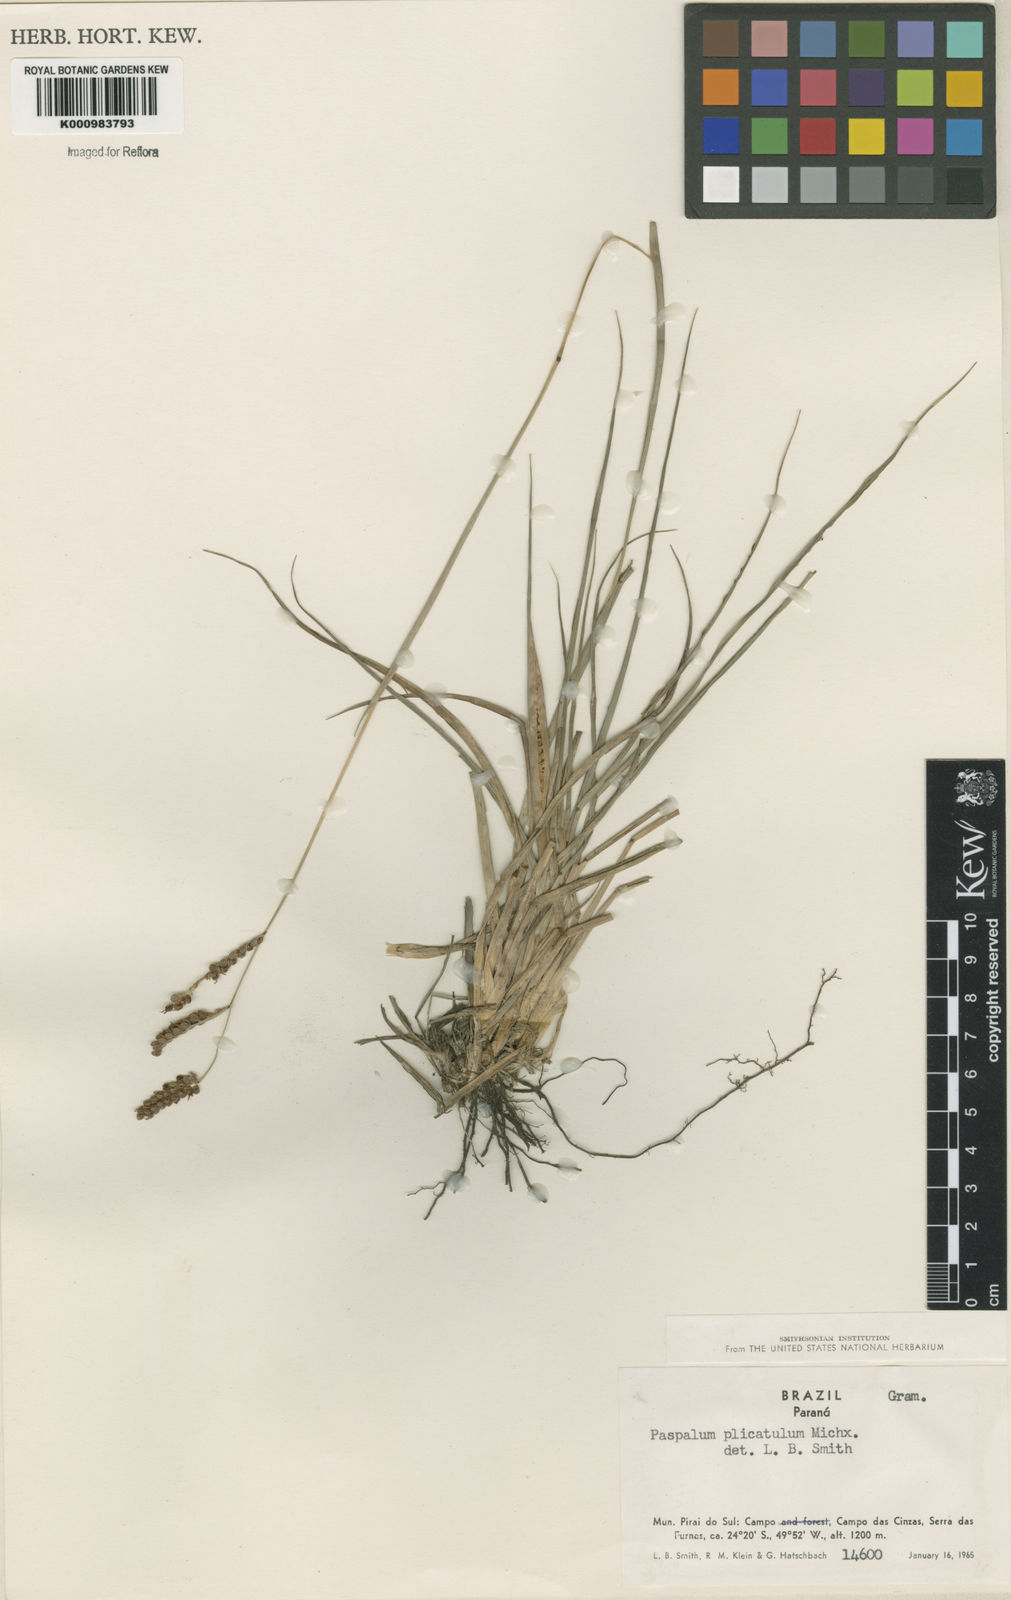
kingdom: Plantae
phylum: Tracheophyta
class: Liliopsida
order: Poales
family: Poaceae
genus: Paspalum
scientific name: Paspalum plicatulum
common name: Top paspalum
